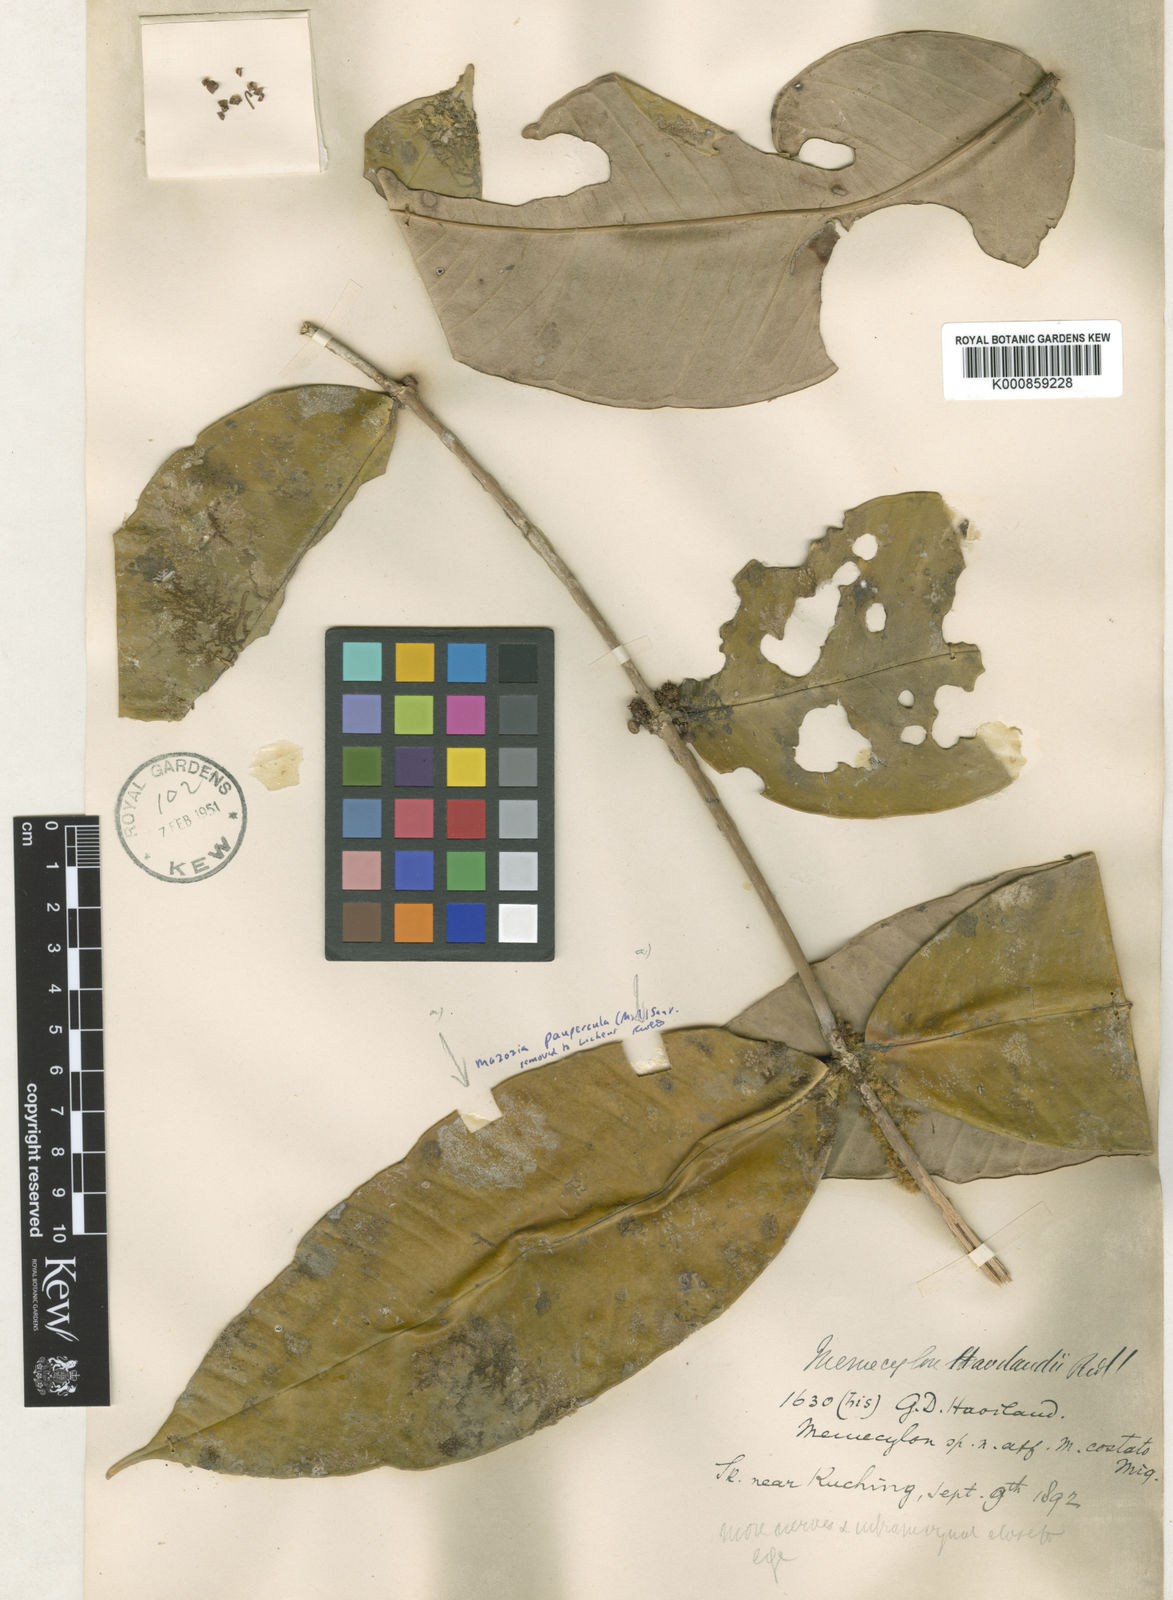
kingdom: Plantae
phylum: Tracheophyta
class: Magnoliopsida
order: Myrtales
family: Melastomataceae
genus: Memecylon
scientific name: Memecylon longifolium
